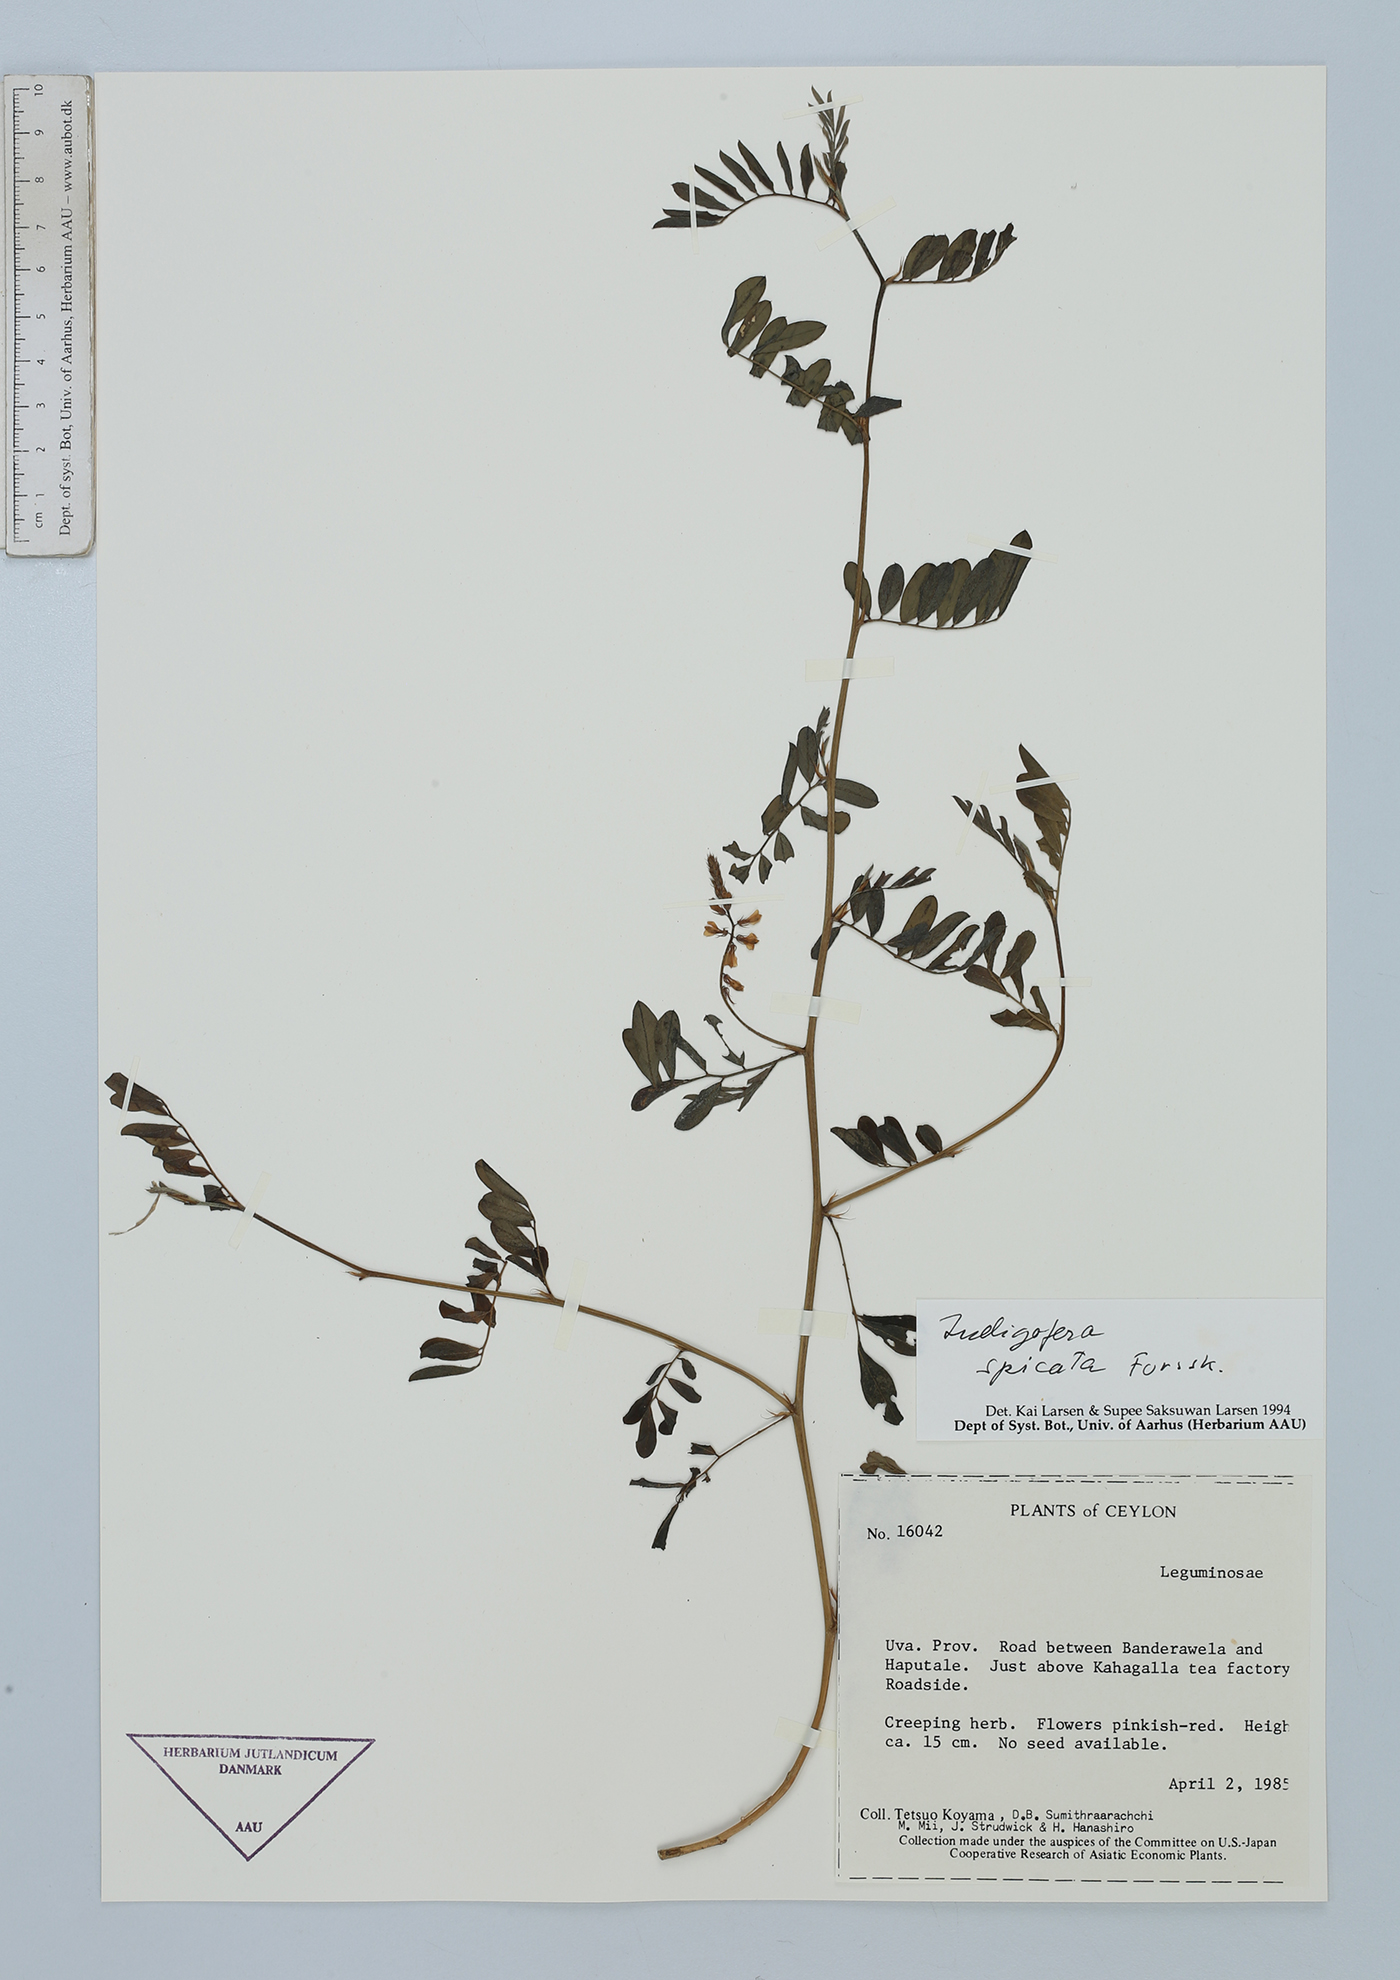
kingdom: Plantae
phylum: Tracheophyta
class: Magnoliopsida
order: Fabales
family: Fabaceae
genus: Indigofera
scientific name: Indigofera spicata
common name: Creeping indigo
